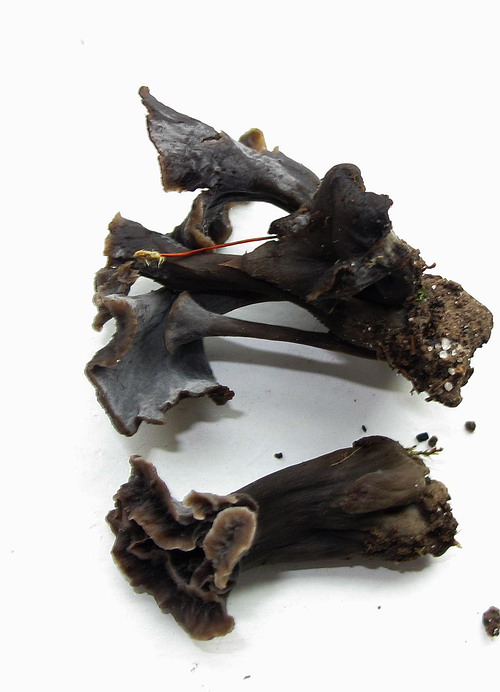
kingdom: Fungi
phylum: Basidiomycota
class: Agaricomycetes
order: Cantharellales
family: Hydnaceae
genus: Craterellus
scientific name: Craterellus cornucopioides
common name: trompetsvamp
